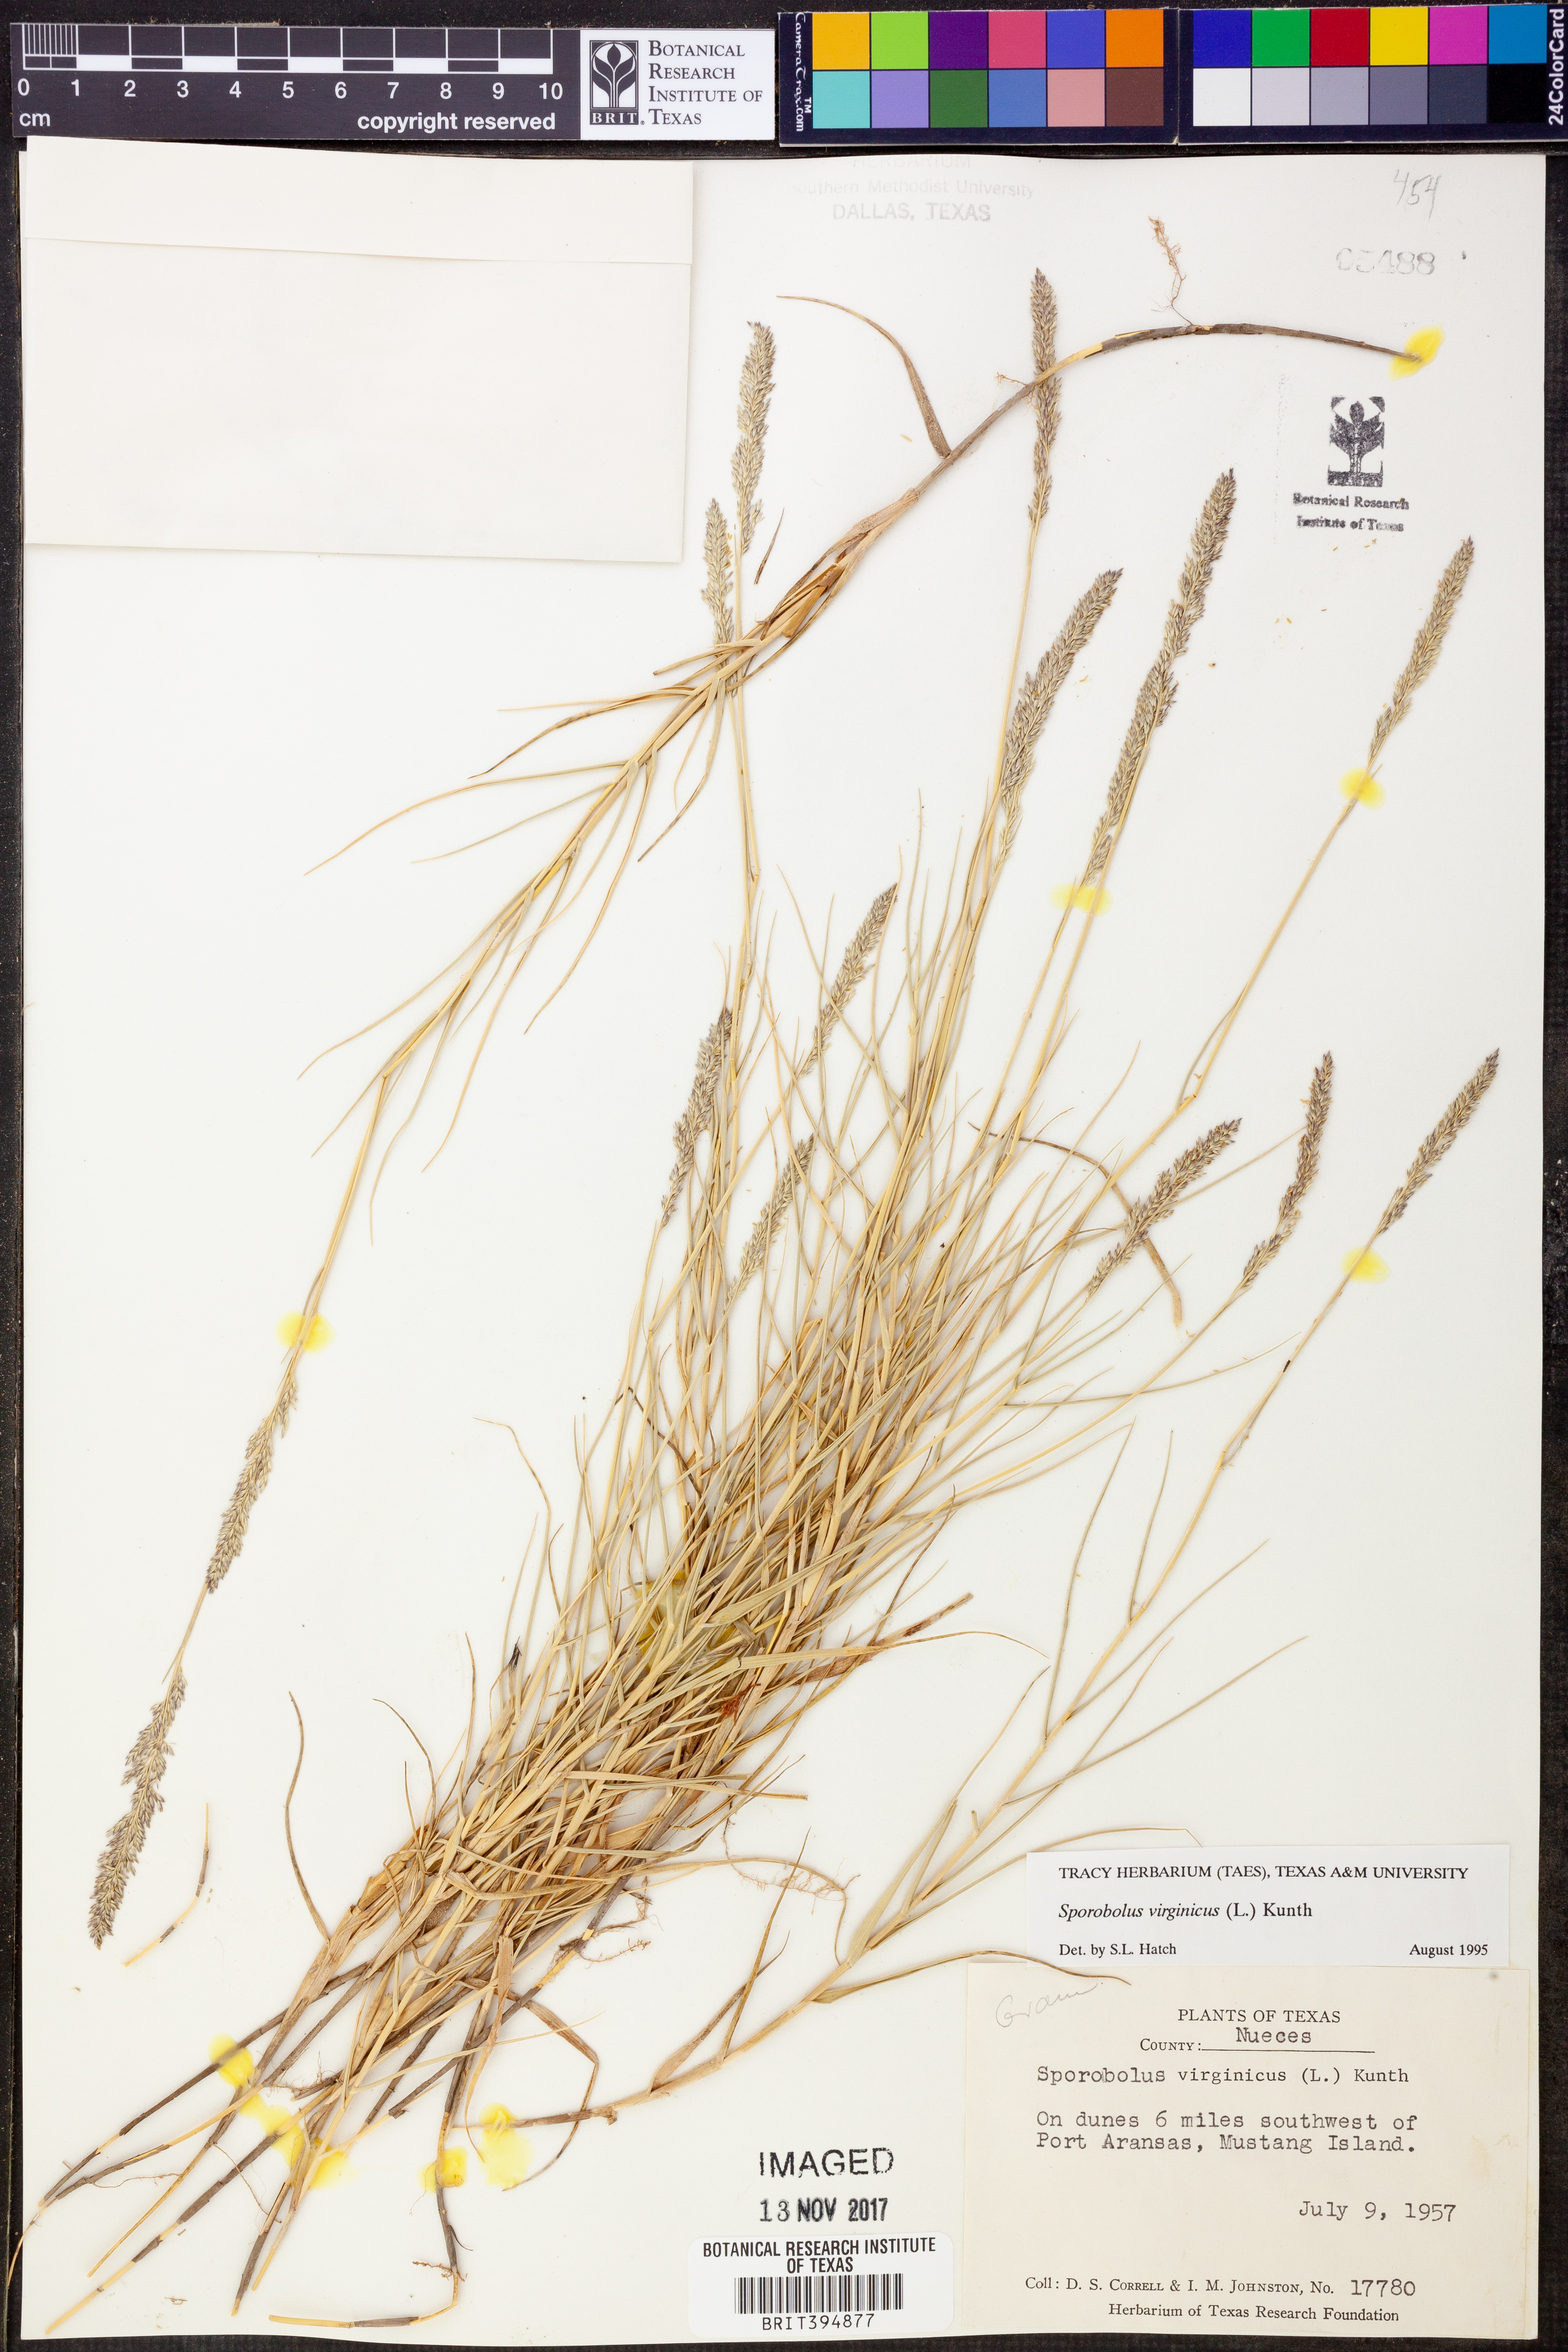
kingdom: Plantae
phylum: Tracheophyta
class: Liliopsida
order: Poales
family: Poaceae
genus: Sporobolus
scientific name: Sporobolus virginicus
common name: Beach dropseed
